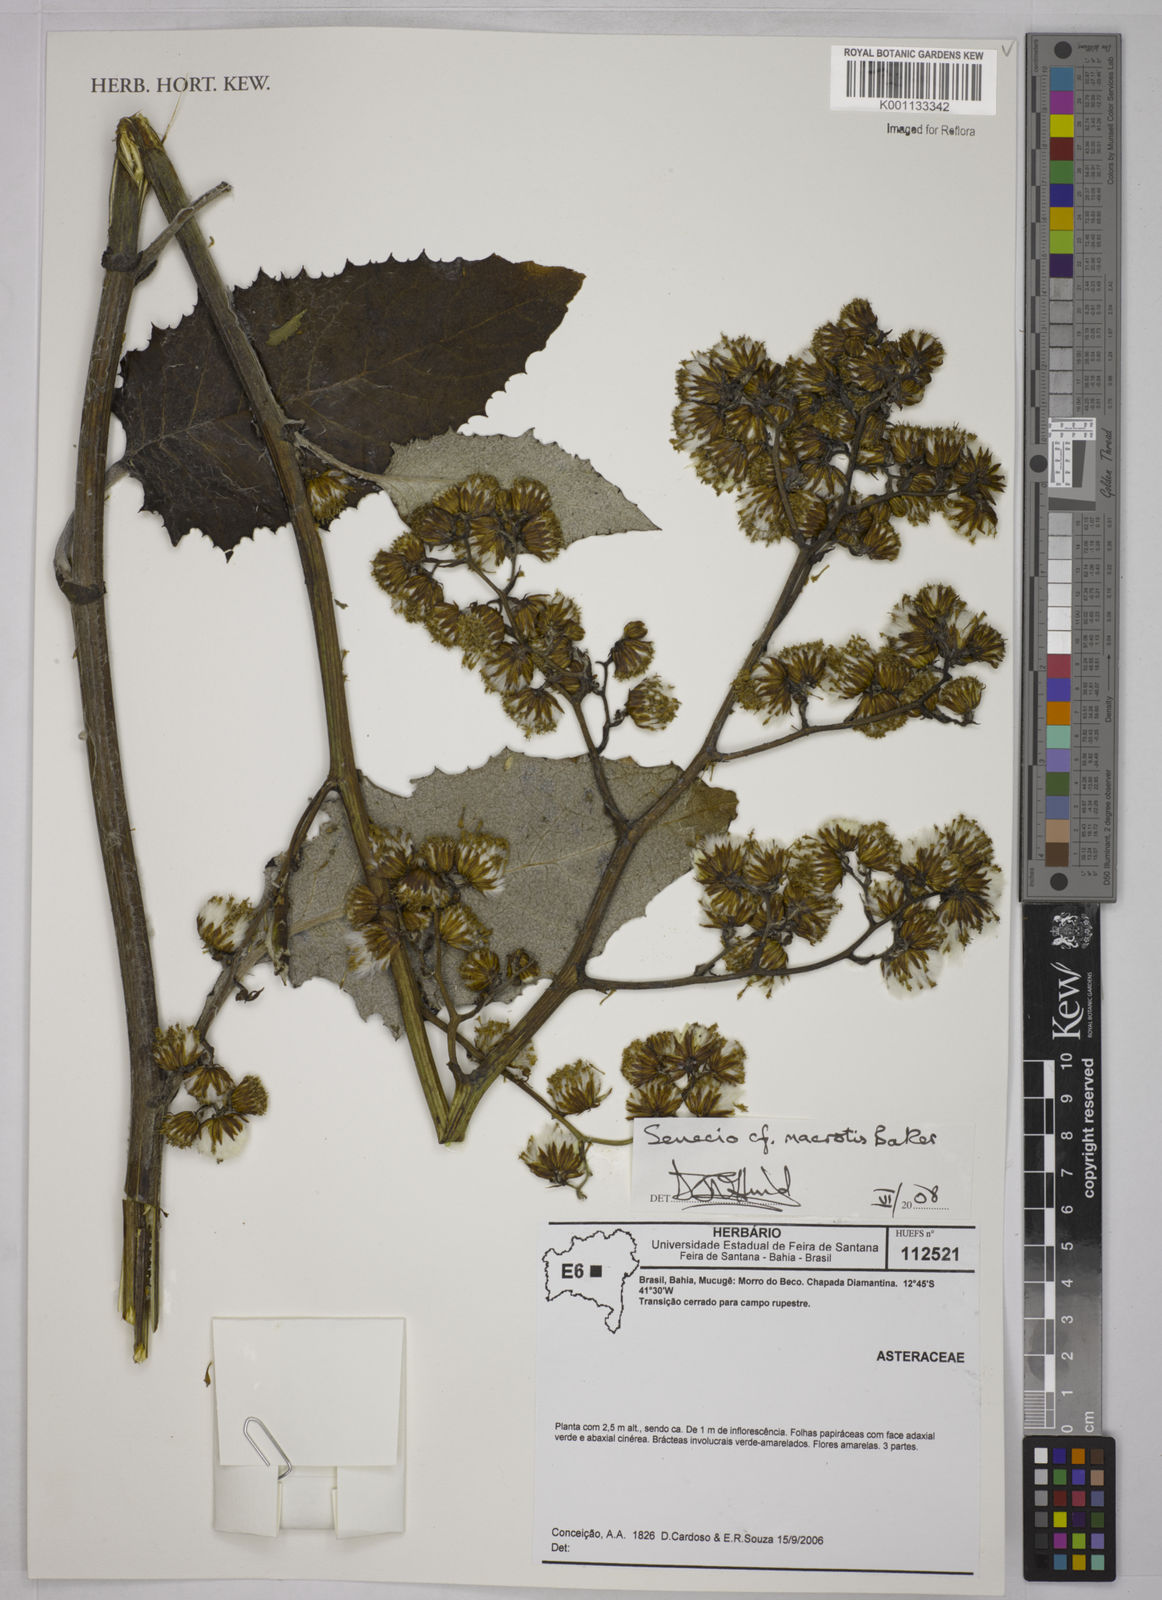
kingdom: Plantae
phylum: Tracheophyta
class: Magnoliopsida
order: Asterales
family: Asteraceae
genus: Senecio
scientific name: Senecio macrotis
